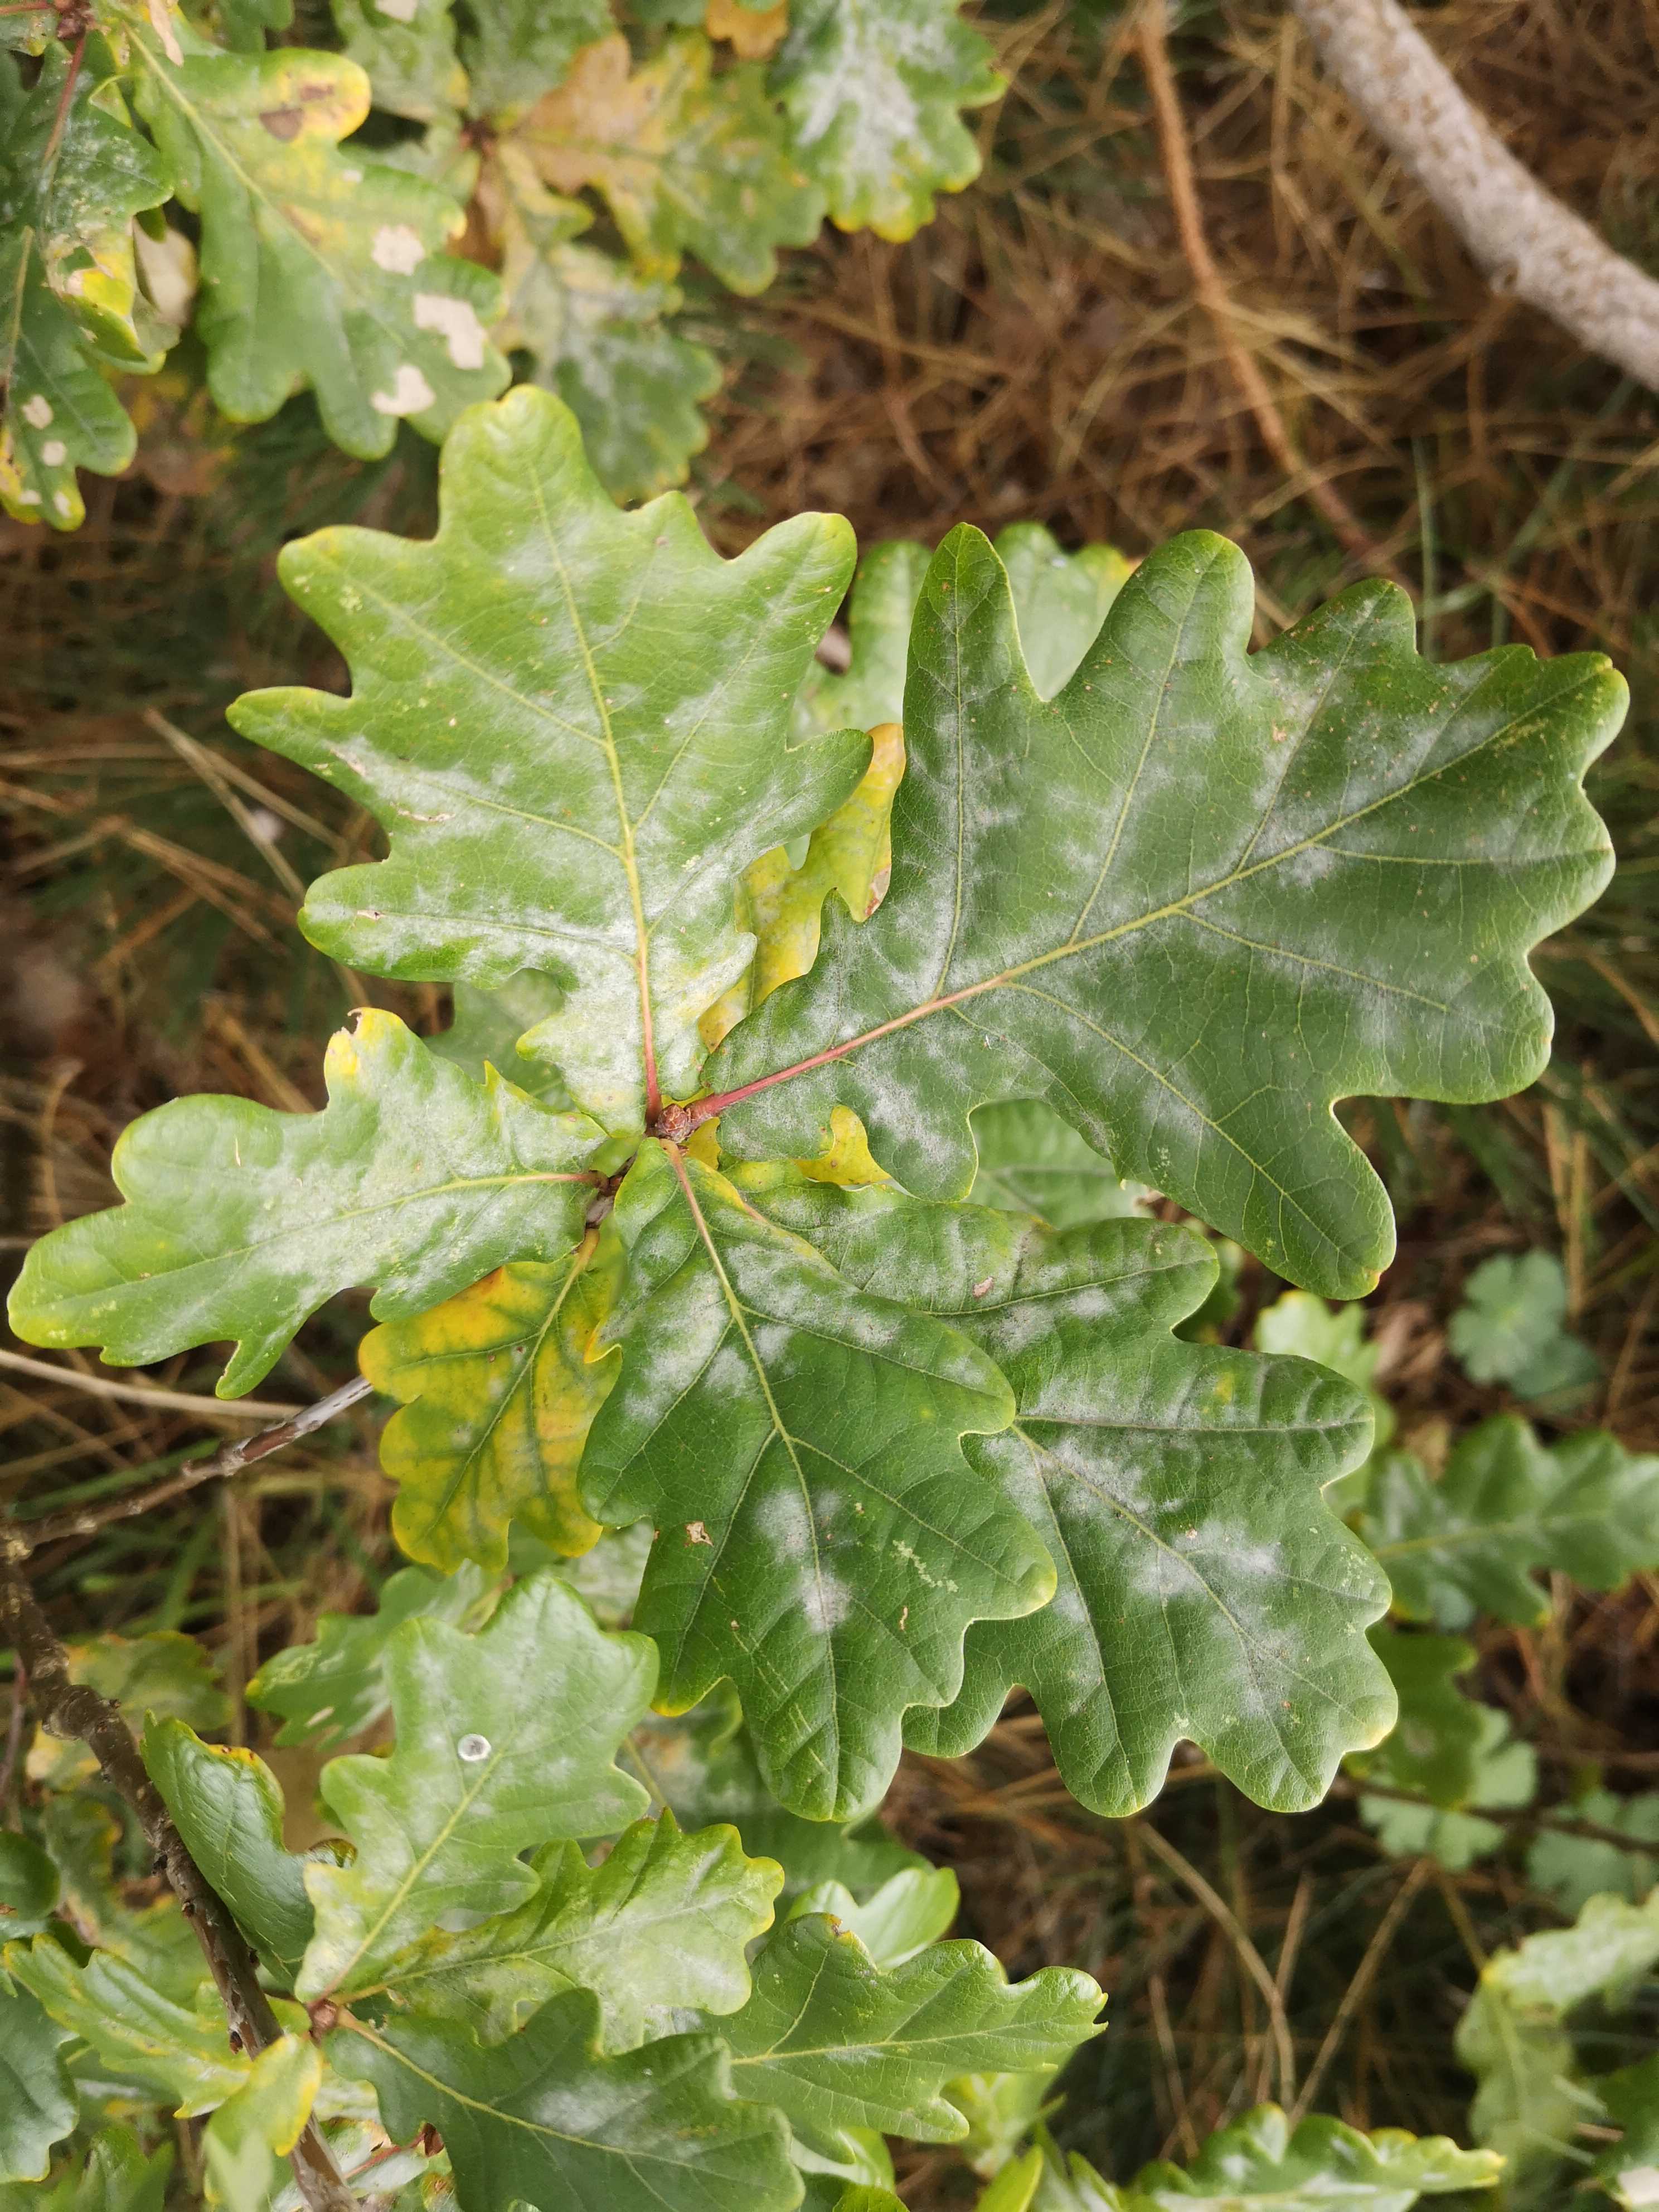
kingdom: Fungi
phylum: Ascomycota
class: Leotiomycetes
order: Helotiales
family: Erysiphaceae
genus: Erysiphe
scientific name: Erysiphe alphitoides
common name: ege-meldug
